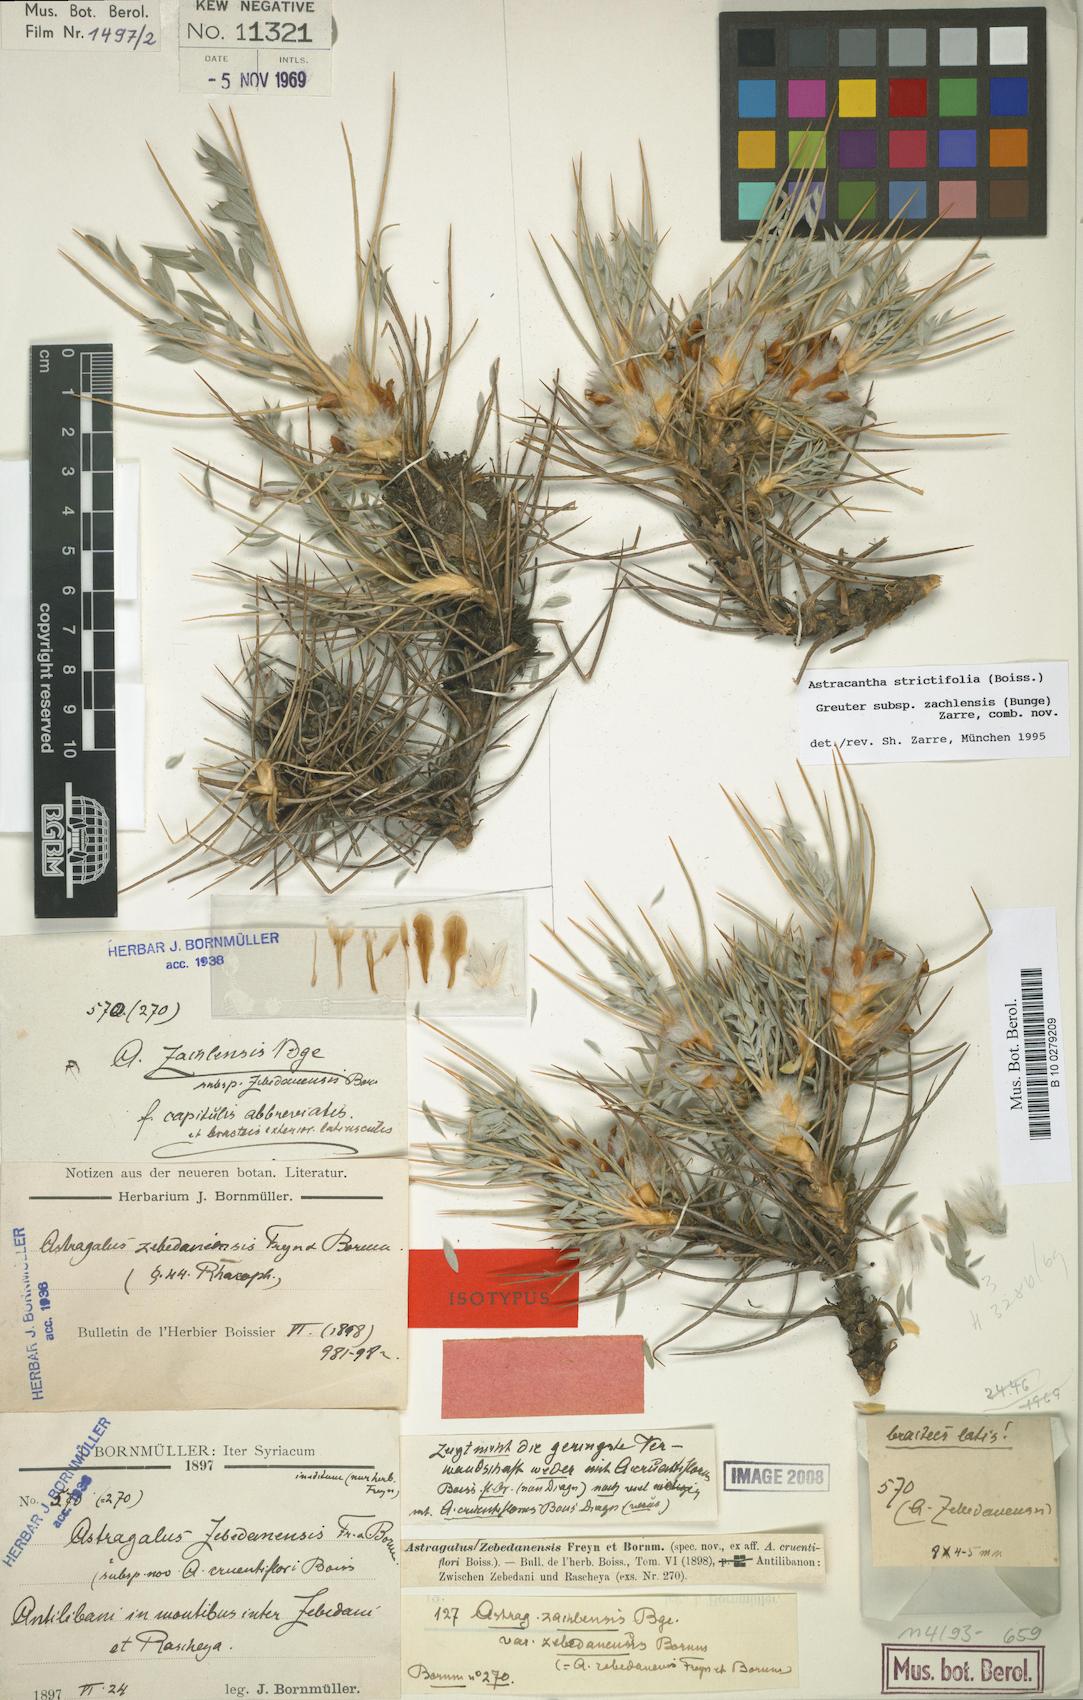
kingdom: Plantae
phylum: Tracheophyta
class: Magnoliopsida
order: Fabales
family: Fabaceae
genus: Astragalus
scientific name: Astragalus strictifolius
